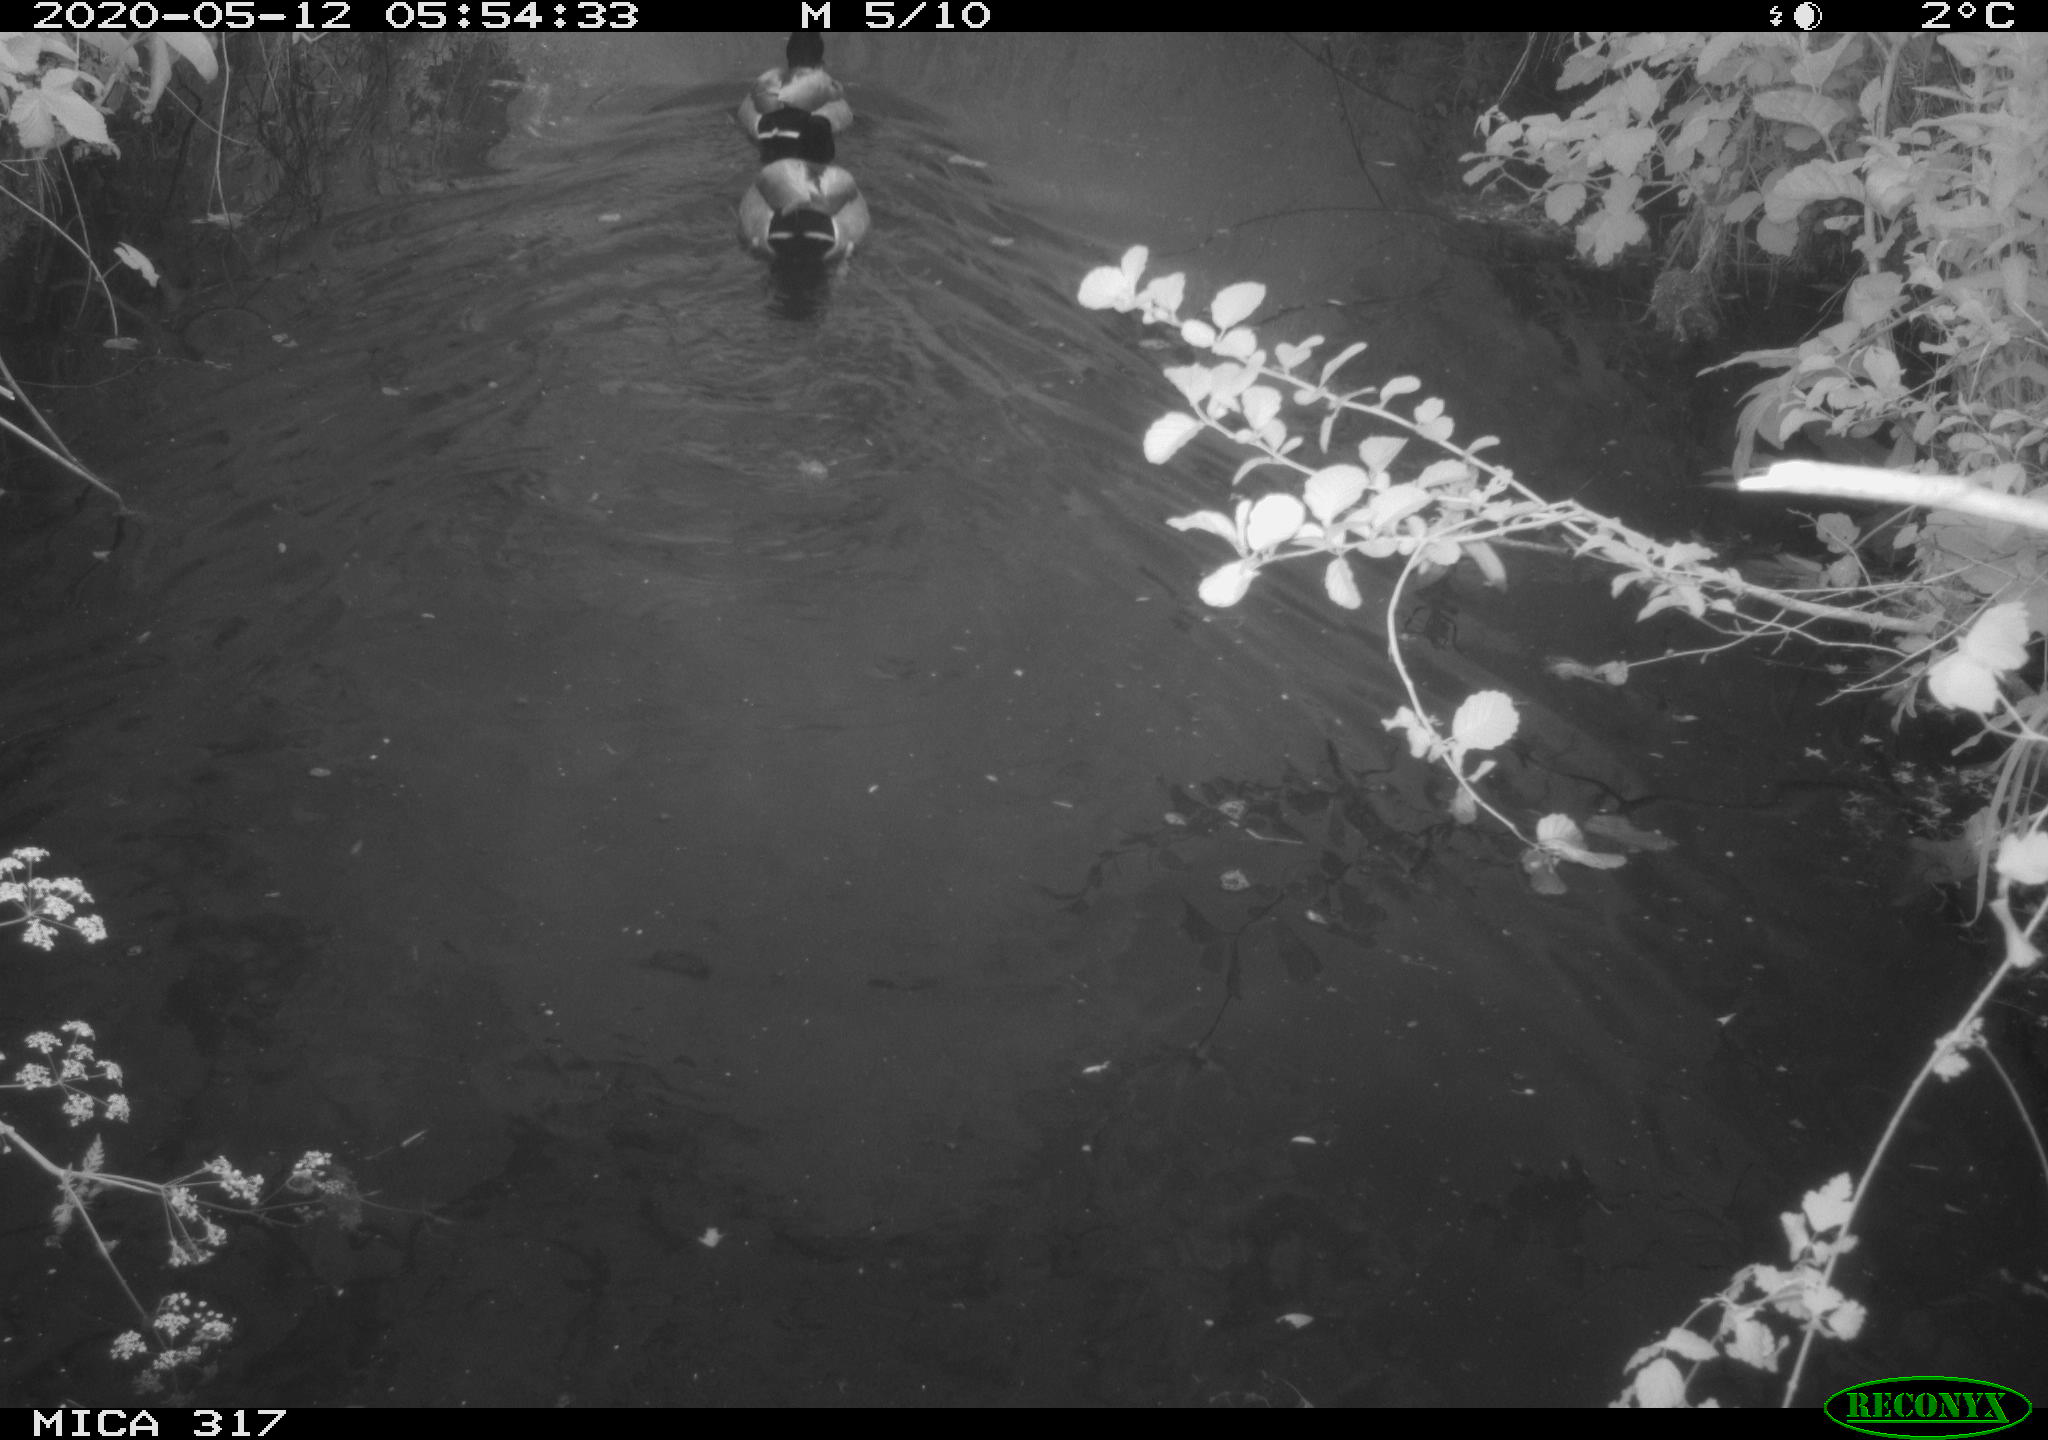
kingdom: Animalia
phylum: Chordata
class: Aves
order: Anseriformes
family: Anatidae
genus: Anas
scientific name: Anas platyrhynchos
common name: Mallard
